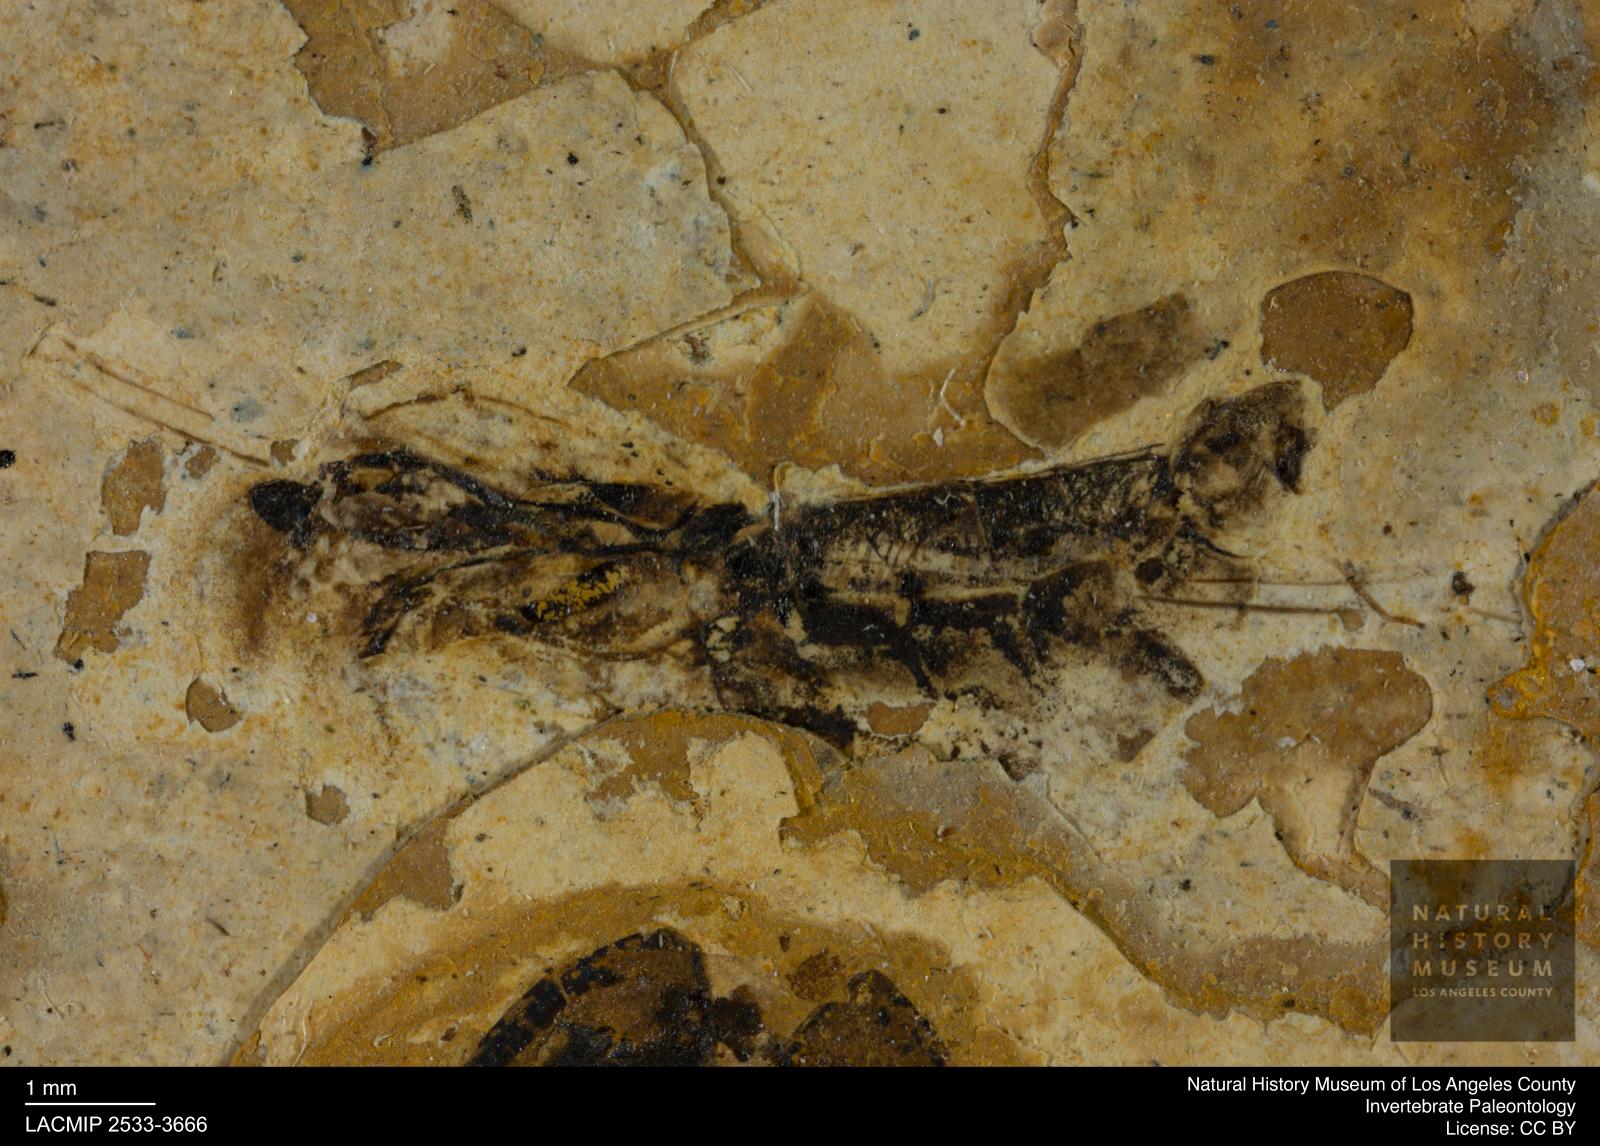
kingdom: Animalia
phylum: Arthropoda
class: Insecta
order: Hemiptera
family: Notonectidae
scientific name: Notonectidae
